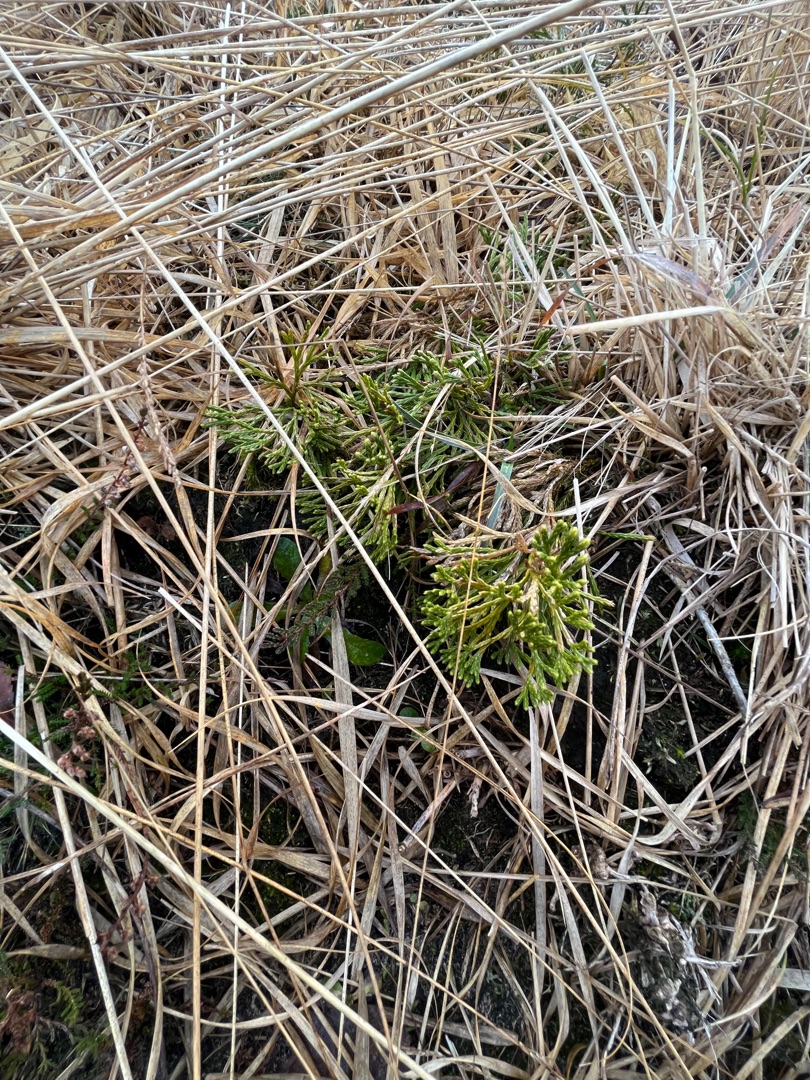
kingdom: Plantae
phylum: Tracheophyta
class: Lycopodiopsida
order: Lycopodiales
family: Lycopodiaceae
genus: Diphasiastrum
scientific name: Diphasiastrum tristachyum
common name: Flad ulvefod × cypres-ulvefod
